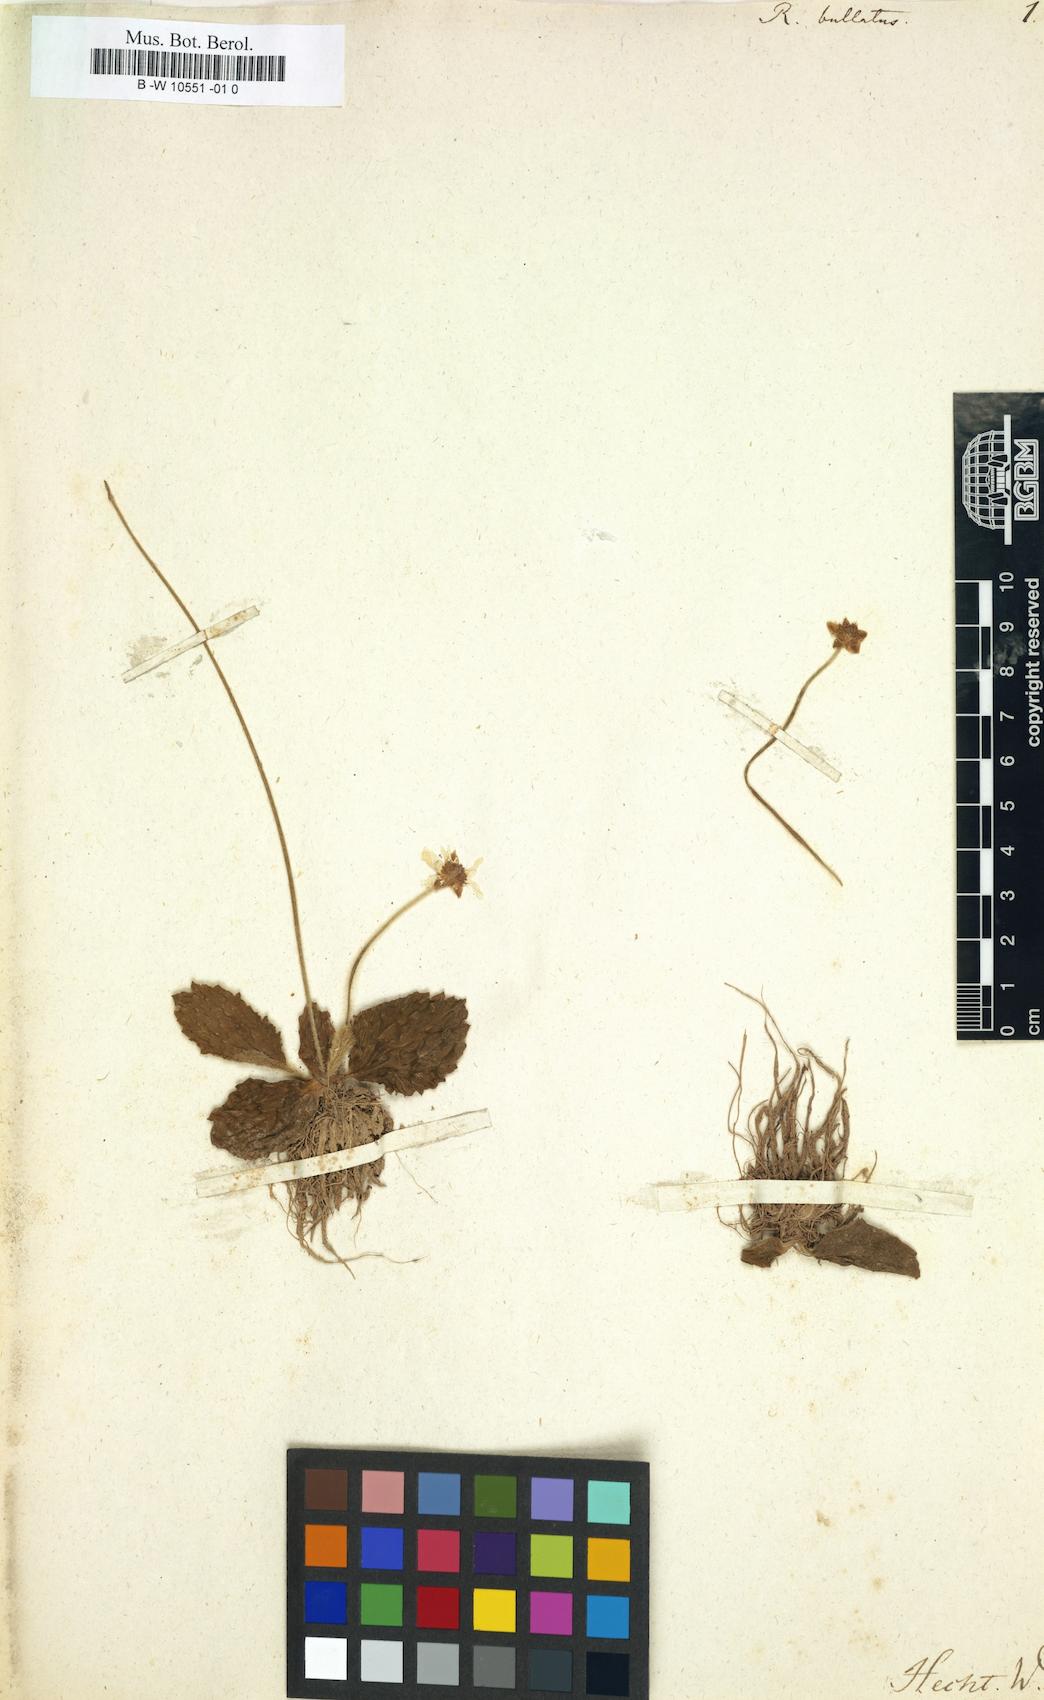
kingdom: Plantae
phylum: Tracheophyta
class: Magnoliopsida
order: Ranunculales
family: Ranunculaceae
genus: Ranunculus
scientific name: Ranunculus bullatus
